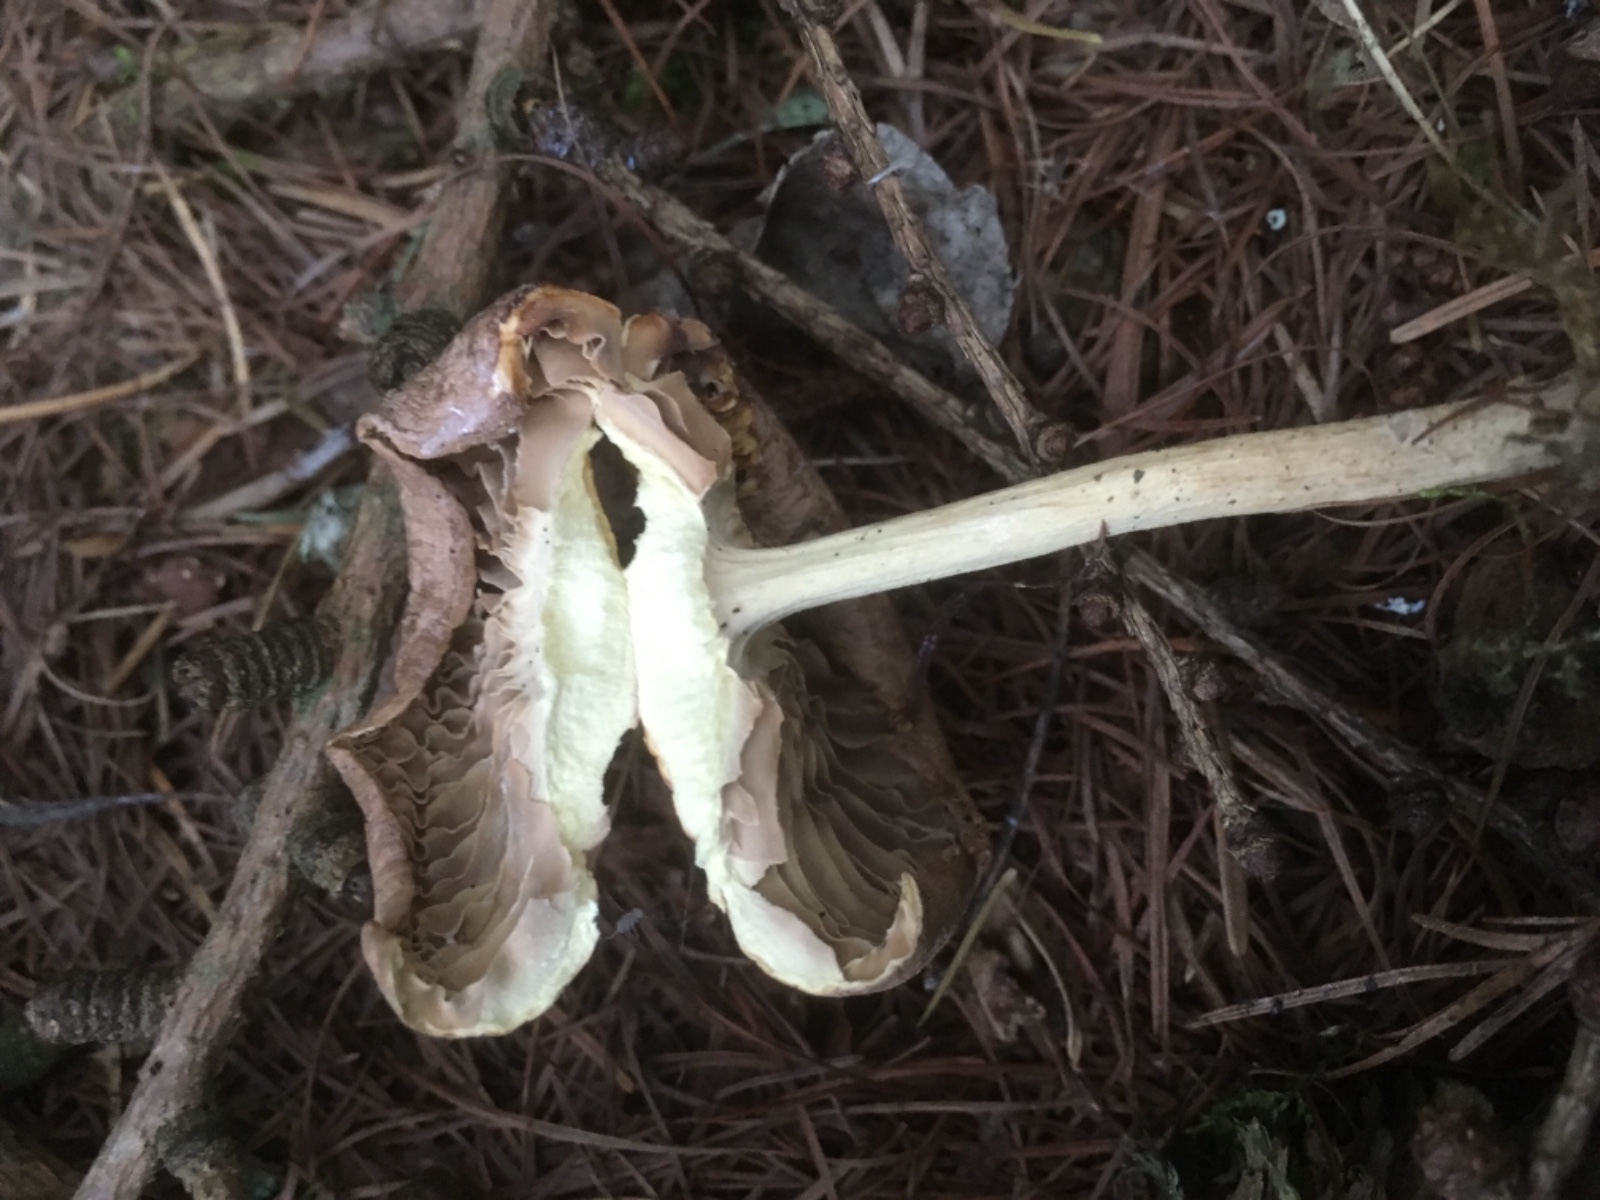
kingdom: Fungi
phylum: Basidiomycota
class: Agaricomycetes
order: Agaricales
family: Omphalotaceae
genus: Collybiopsis
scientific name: Collybiopsis peronata
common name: bestøvlet fladhat
